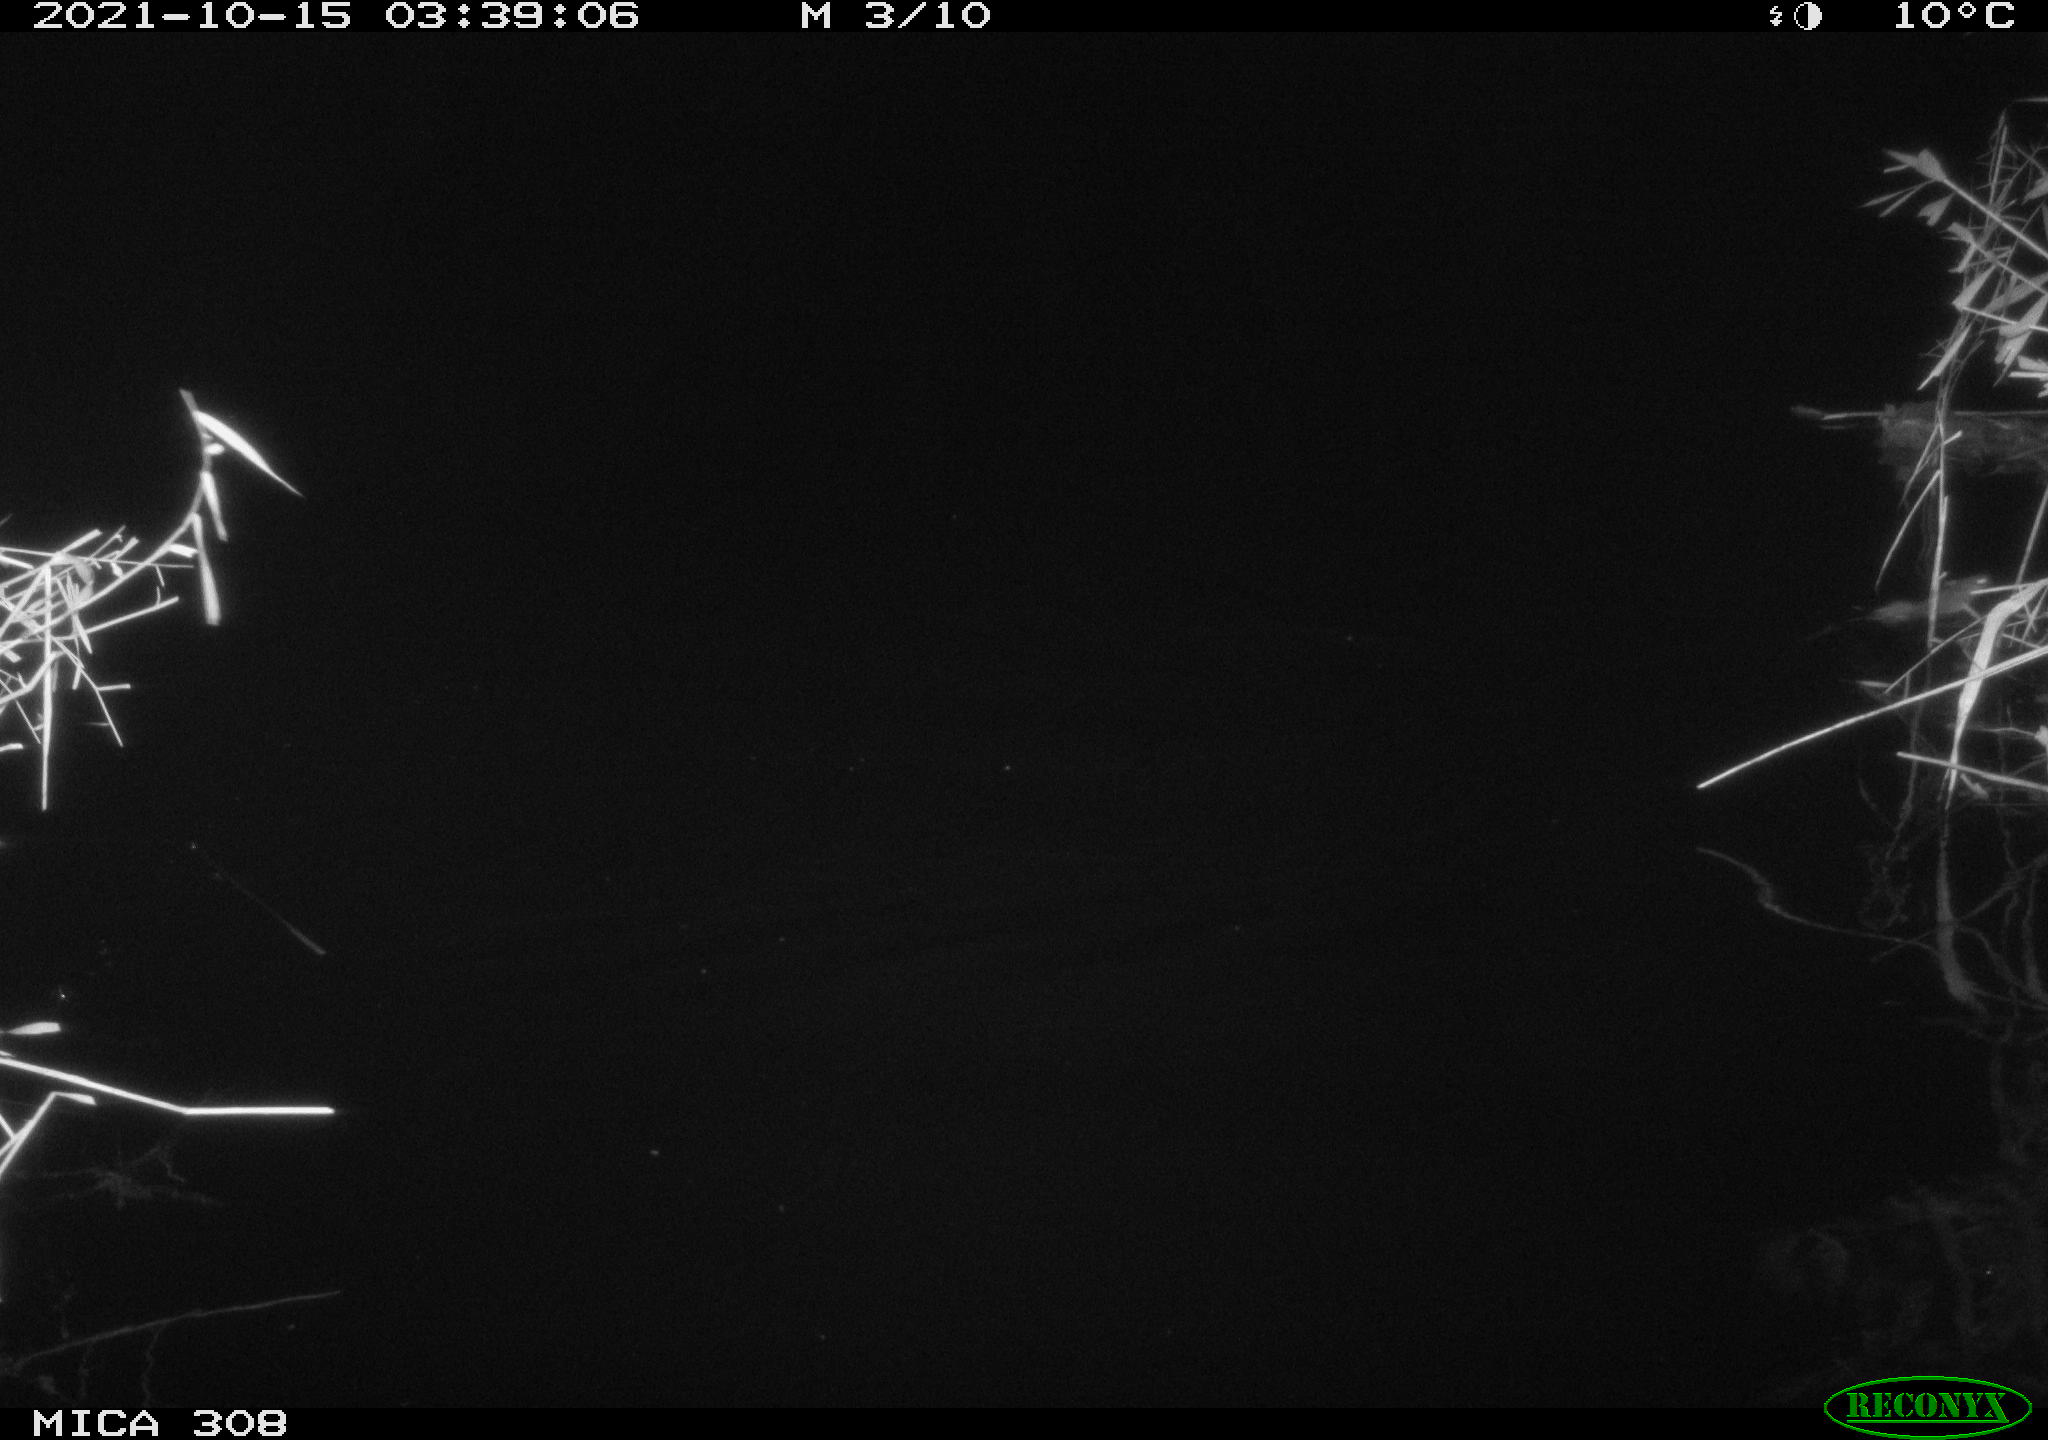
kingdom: Animalia
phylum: Chordata
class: Mammalia
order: Rodentia
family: Muridae
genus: Rattus
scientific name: Rattus norvegicus
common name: Brown rat
